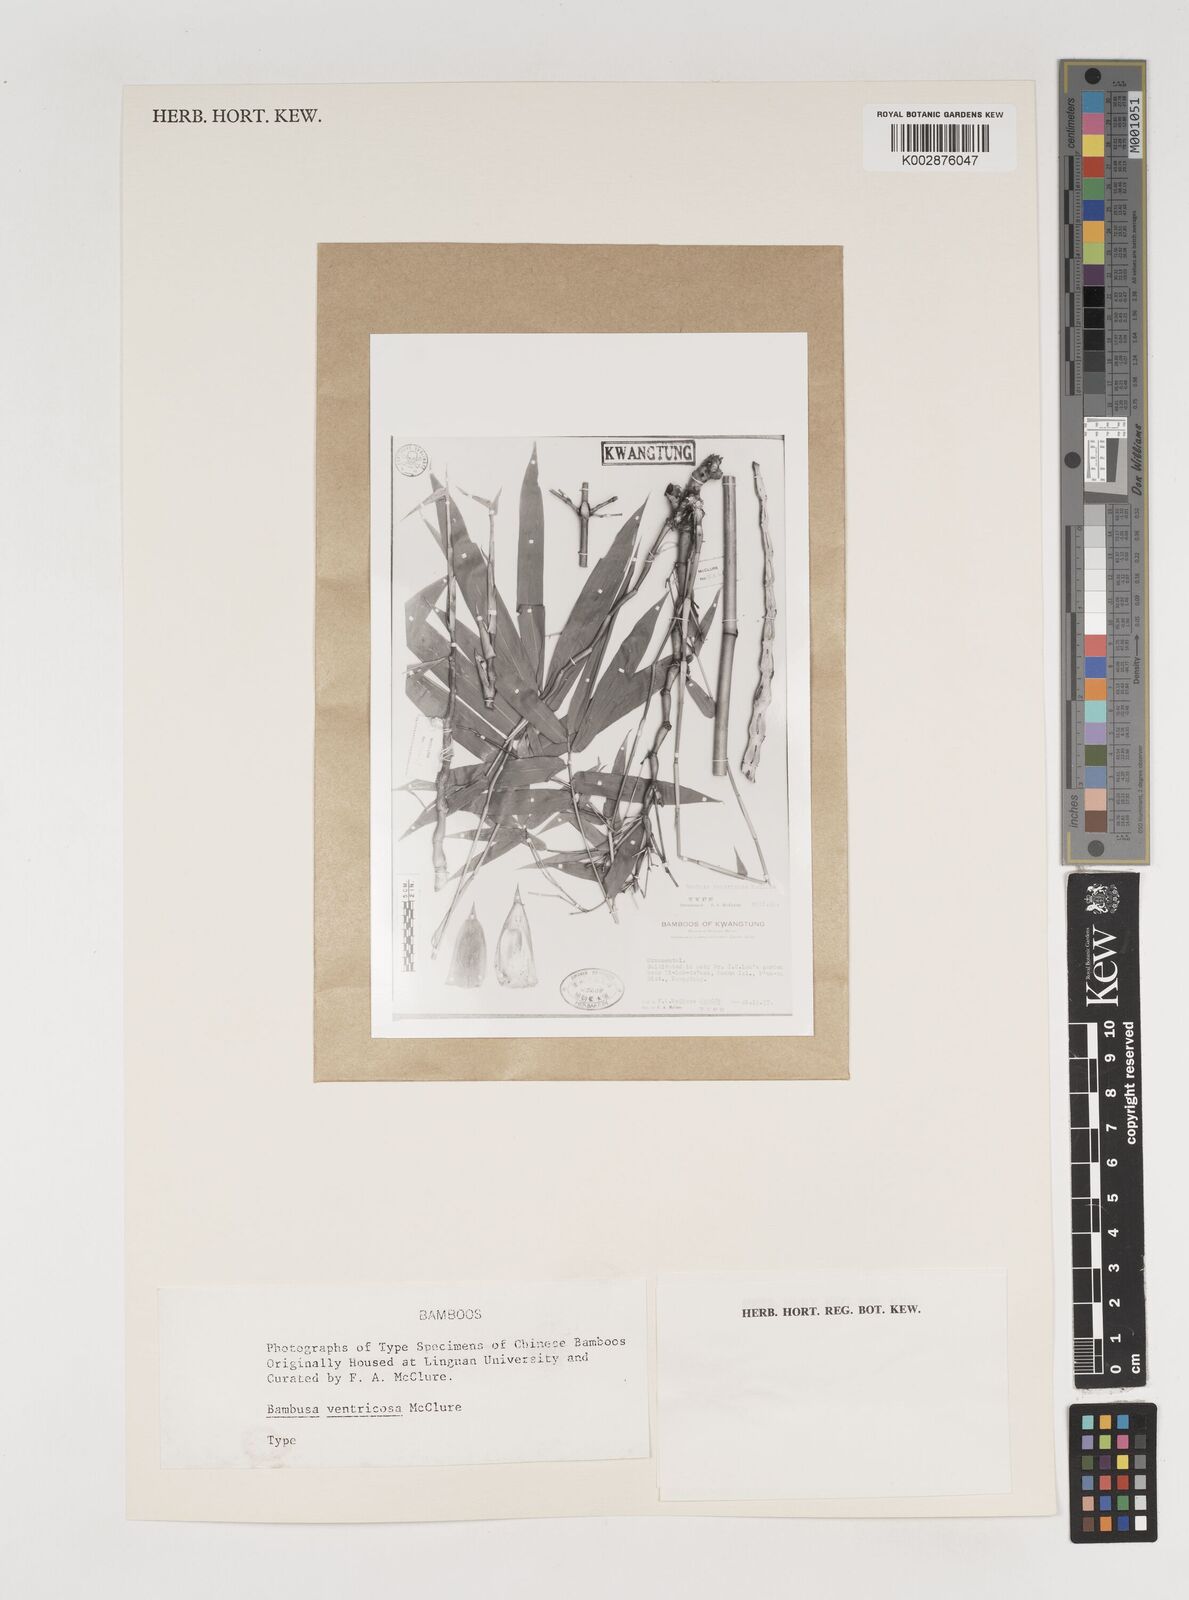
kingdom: Plantae
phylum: Tracheophyta
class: Liliopsida
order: Poales
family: Poaceae
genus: Bambusa
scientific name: Bambusa ventricosa
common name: Buddha bamboo
